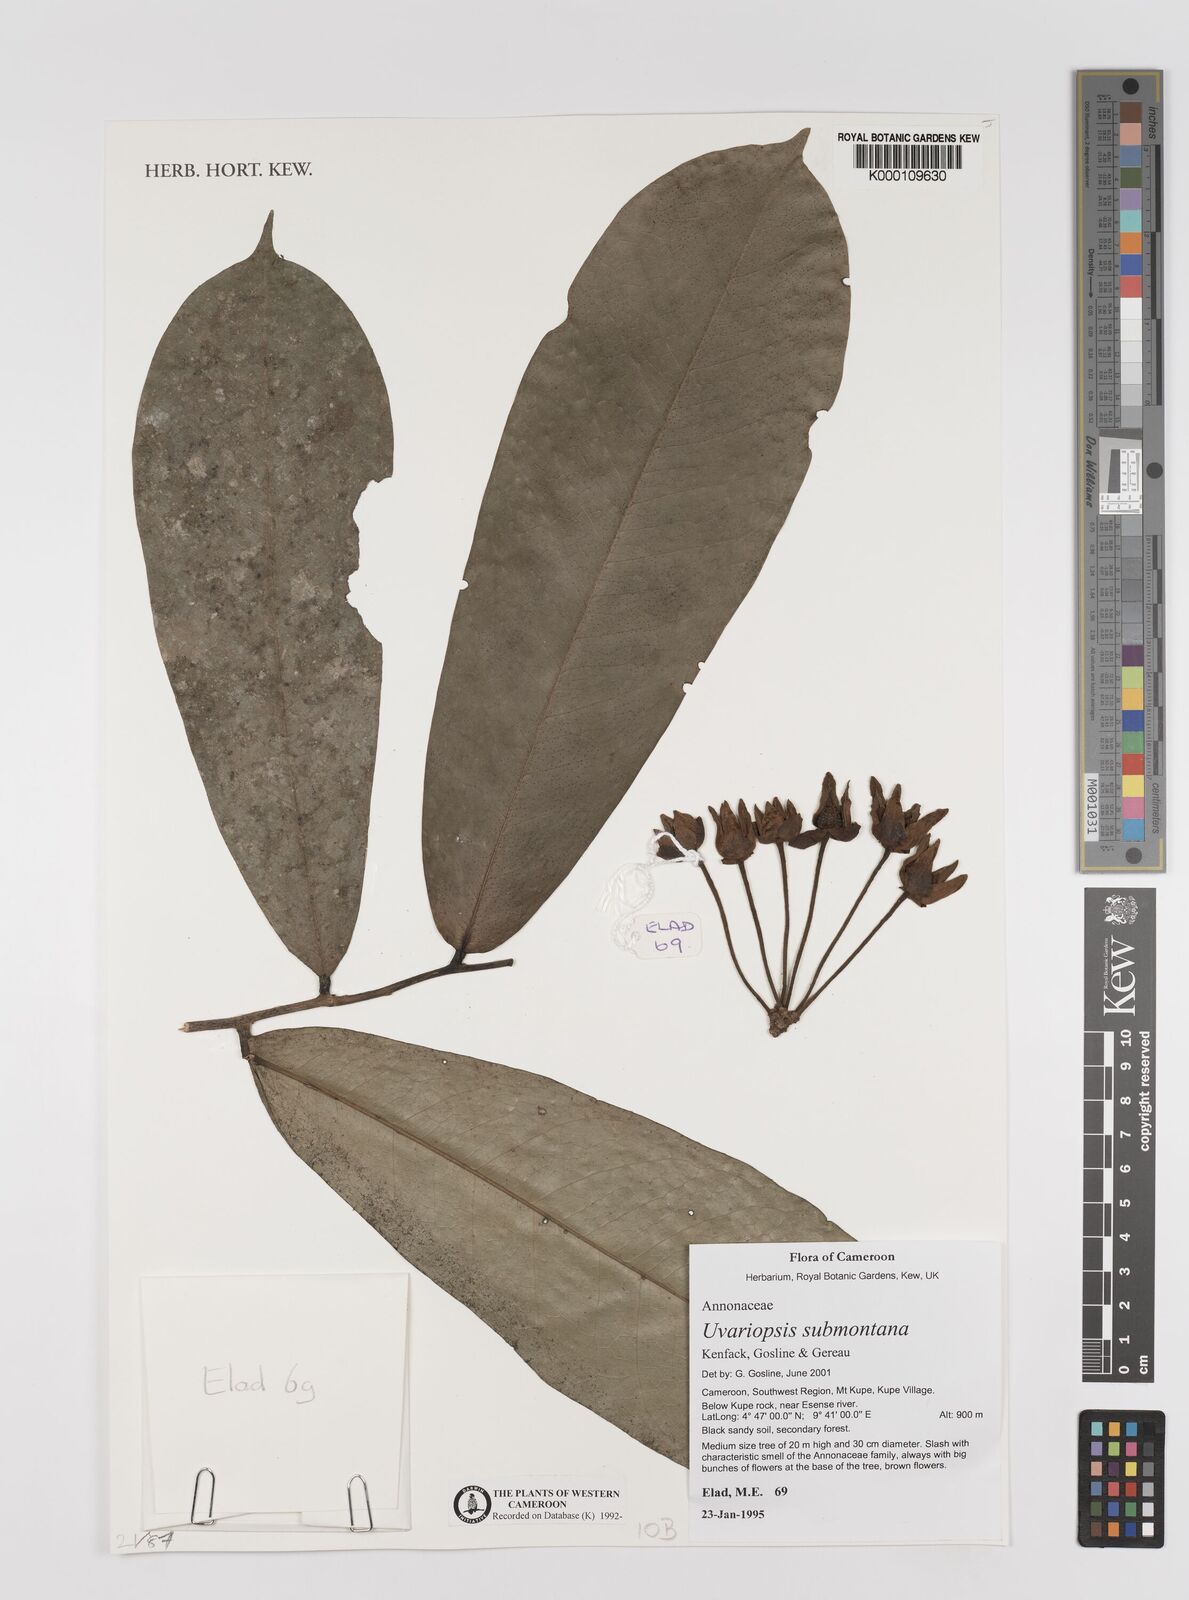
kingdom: Plantae
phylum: Tracheophyta
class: Magnoliopsida
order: Magnoliales
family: Annonaceae
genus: Uvariopsis
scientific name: Uvariopsis submontana
